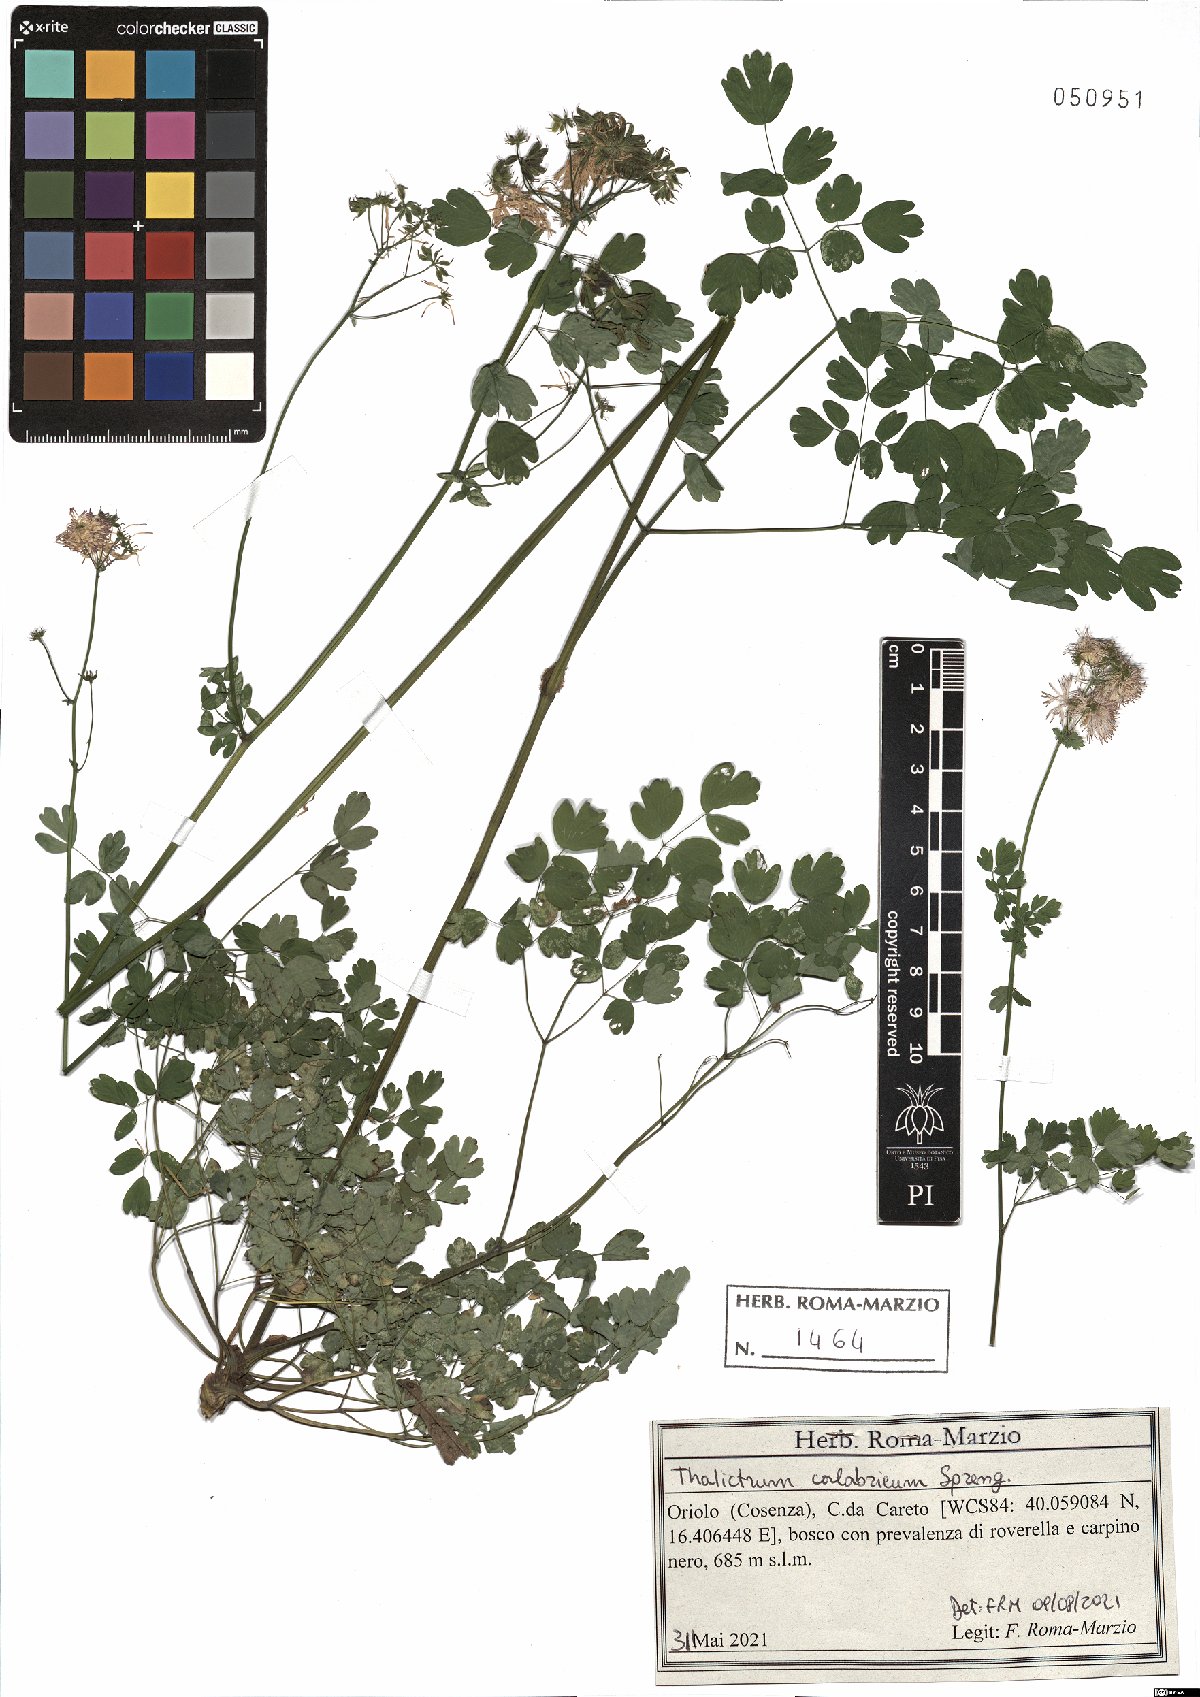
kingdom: Plantae
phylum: Tracheophyta
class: Magnoliopsida
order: Ranunculales
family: Ranunculaceae
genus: Thalictrum
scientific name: Thalictrum calabricum
